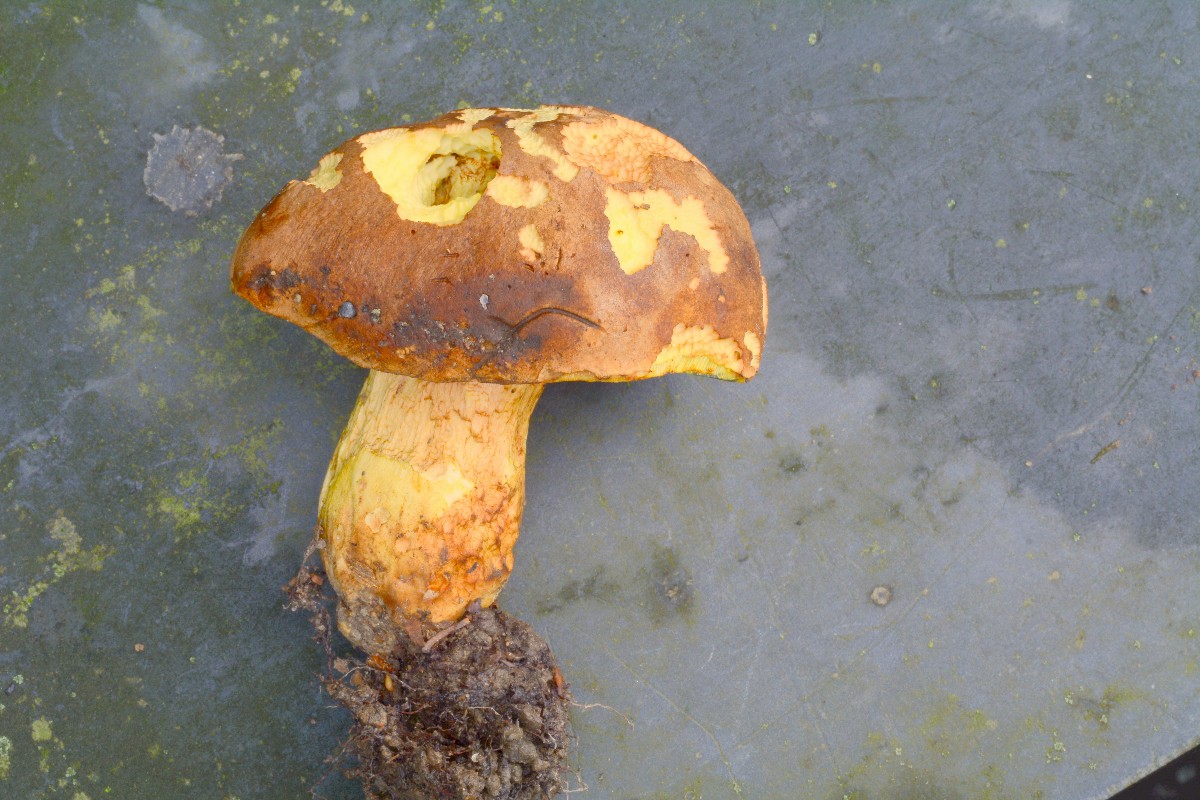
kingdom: Fungi
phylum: Basidiomycota
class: Agaricomycetes
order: Boletales
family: Boletaceae
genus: Butyriboletus
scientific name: Butyriboletus appendiculatus
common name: tenstokket rørhat
